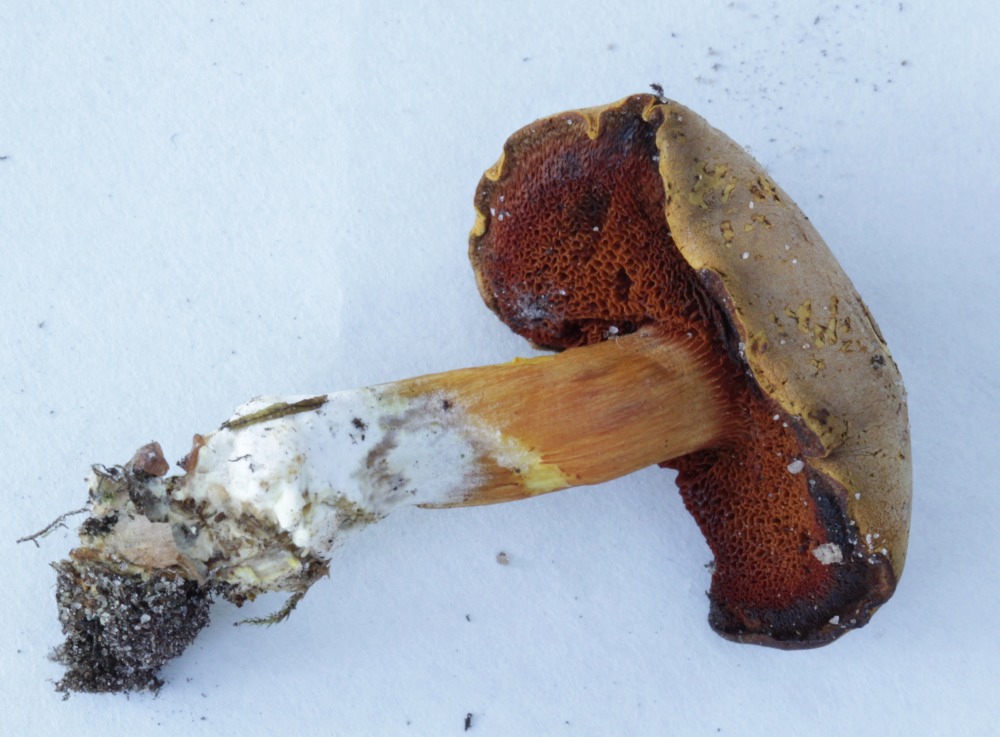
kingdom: Fungi
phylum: Basidiomycota
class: Agaricomycetes
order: Boletales
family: Boletaceae
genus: Chalciporus
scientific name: Chalciporus piperatus
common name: peberrørhat
